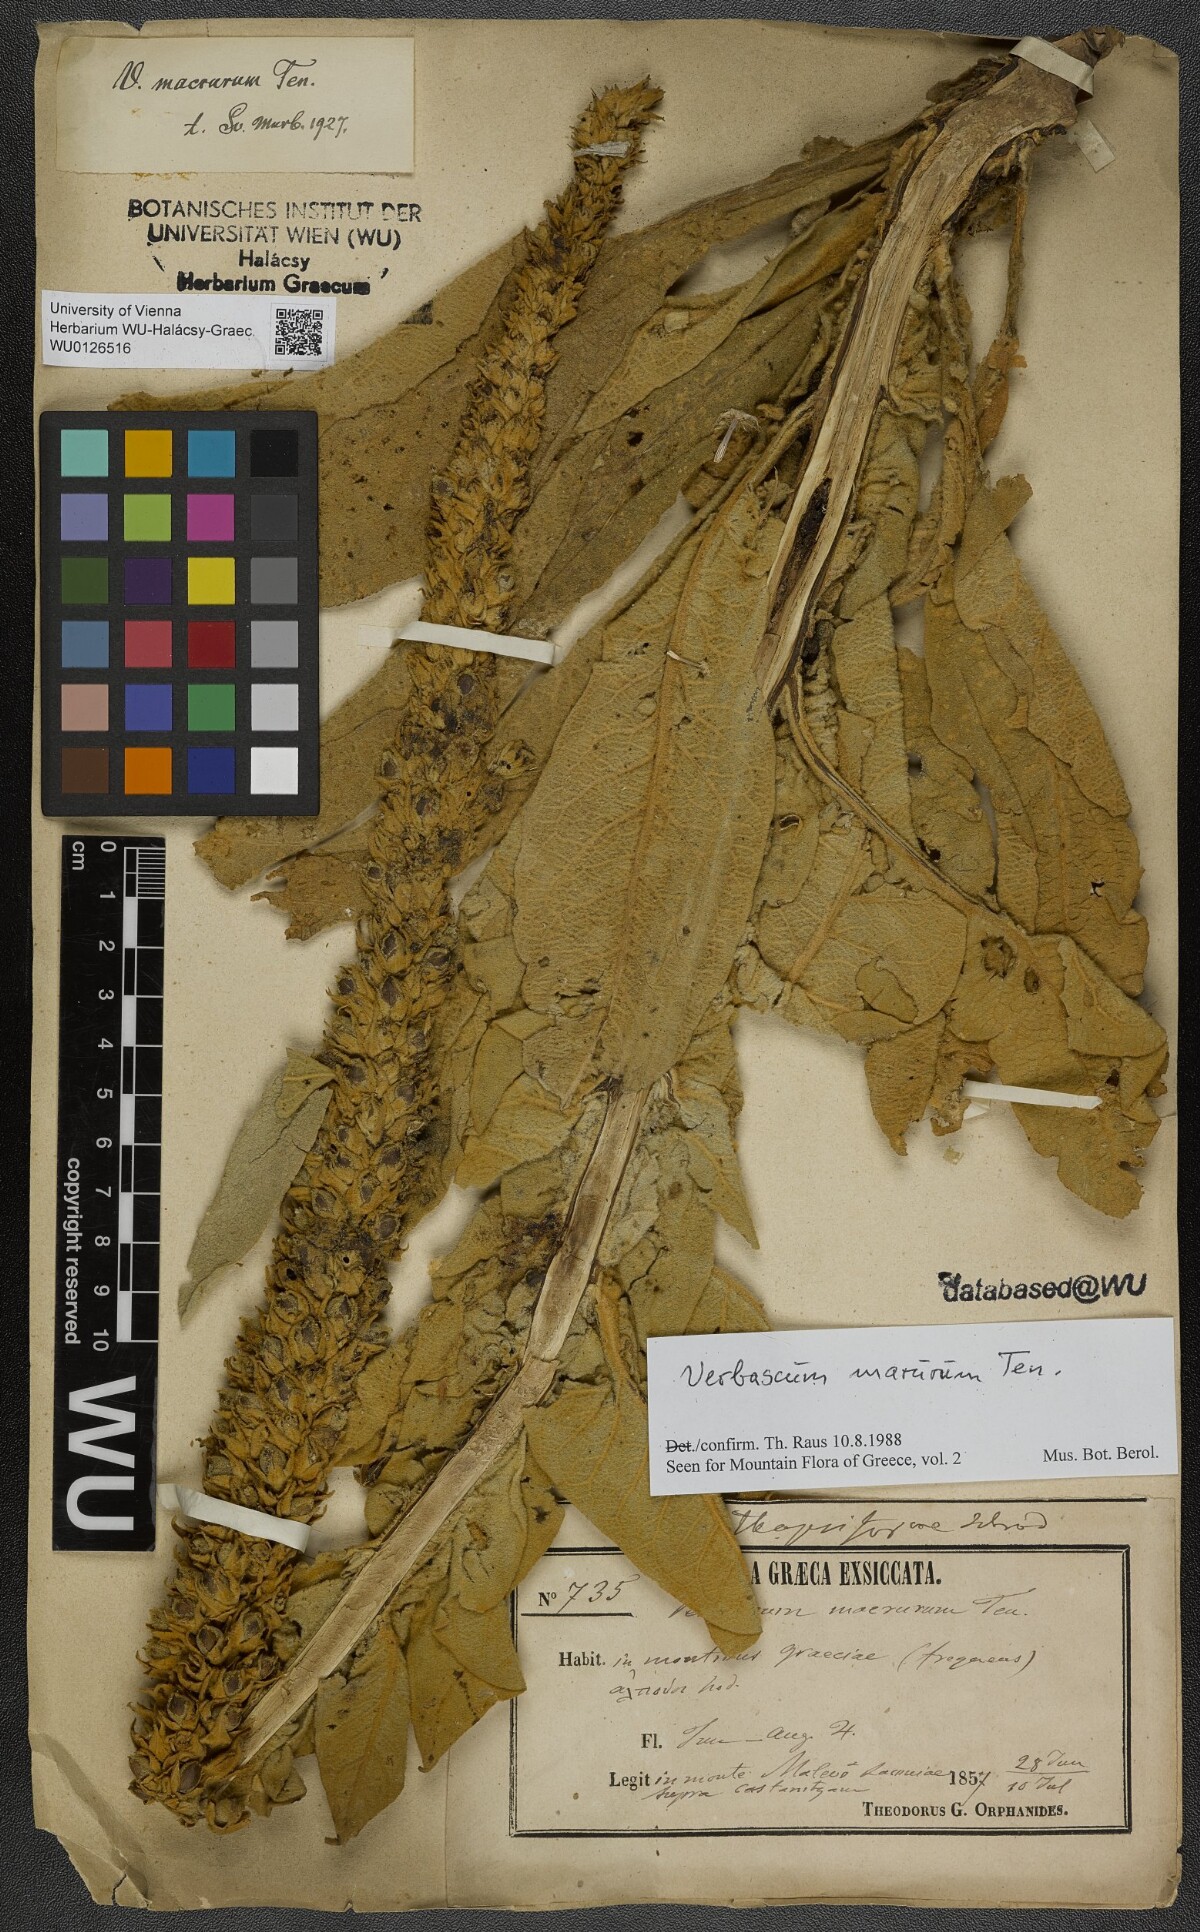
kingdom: Plantae
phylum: Tracheophyta
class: Magnoliopsida
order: Lamiales
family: Scrophulariaceae
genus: Verbascum
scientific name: Verbascum macrurum
